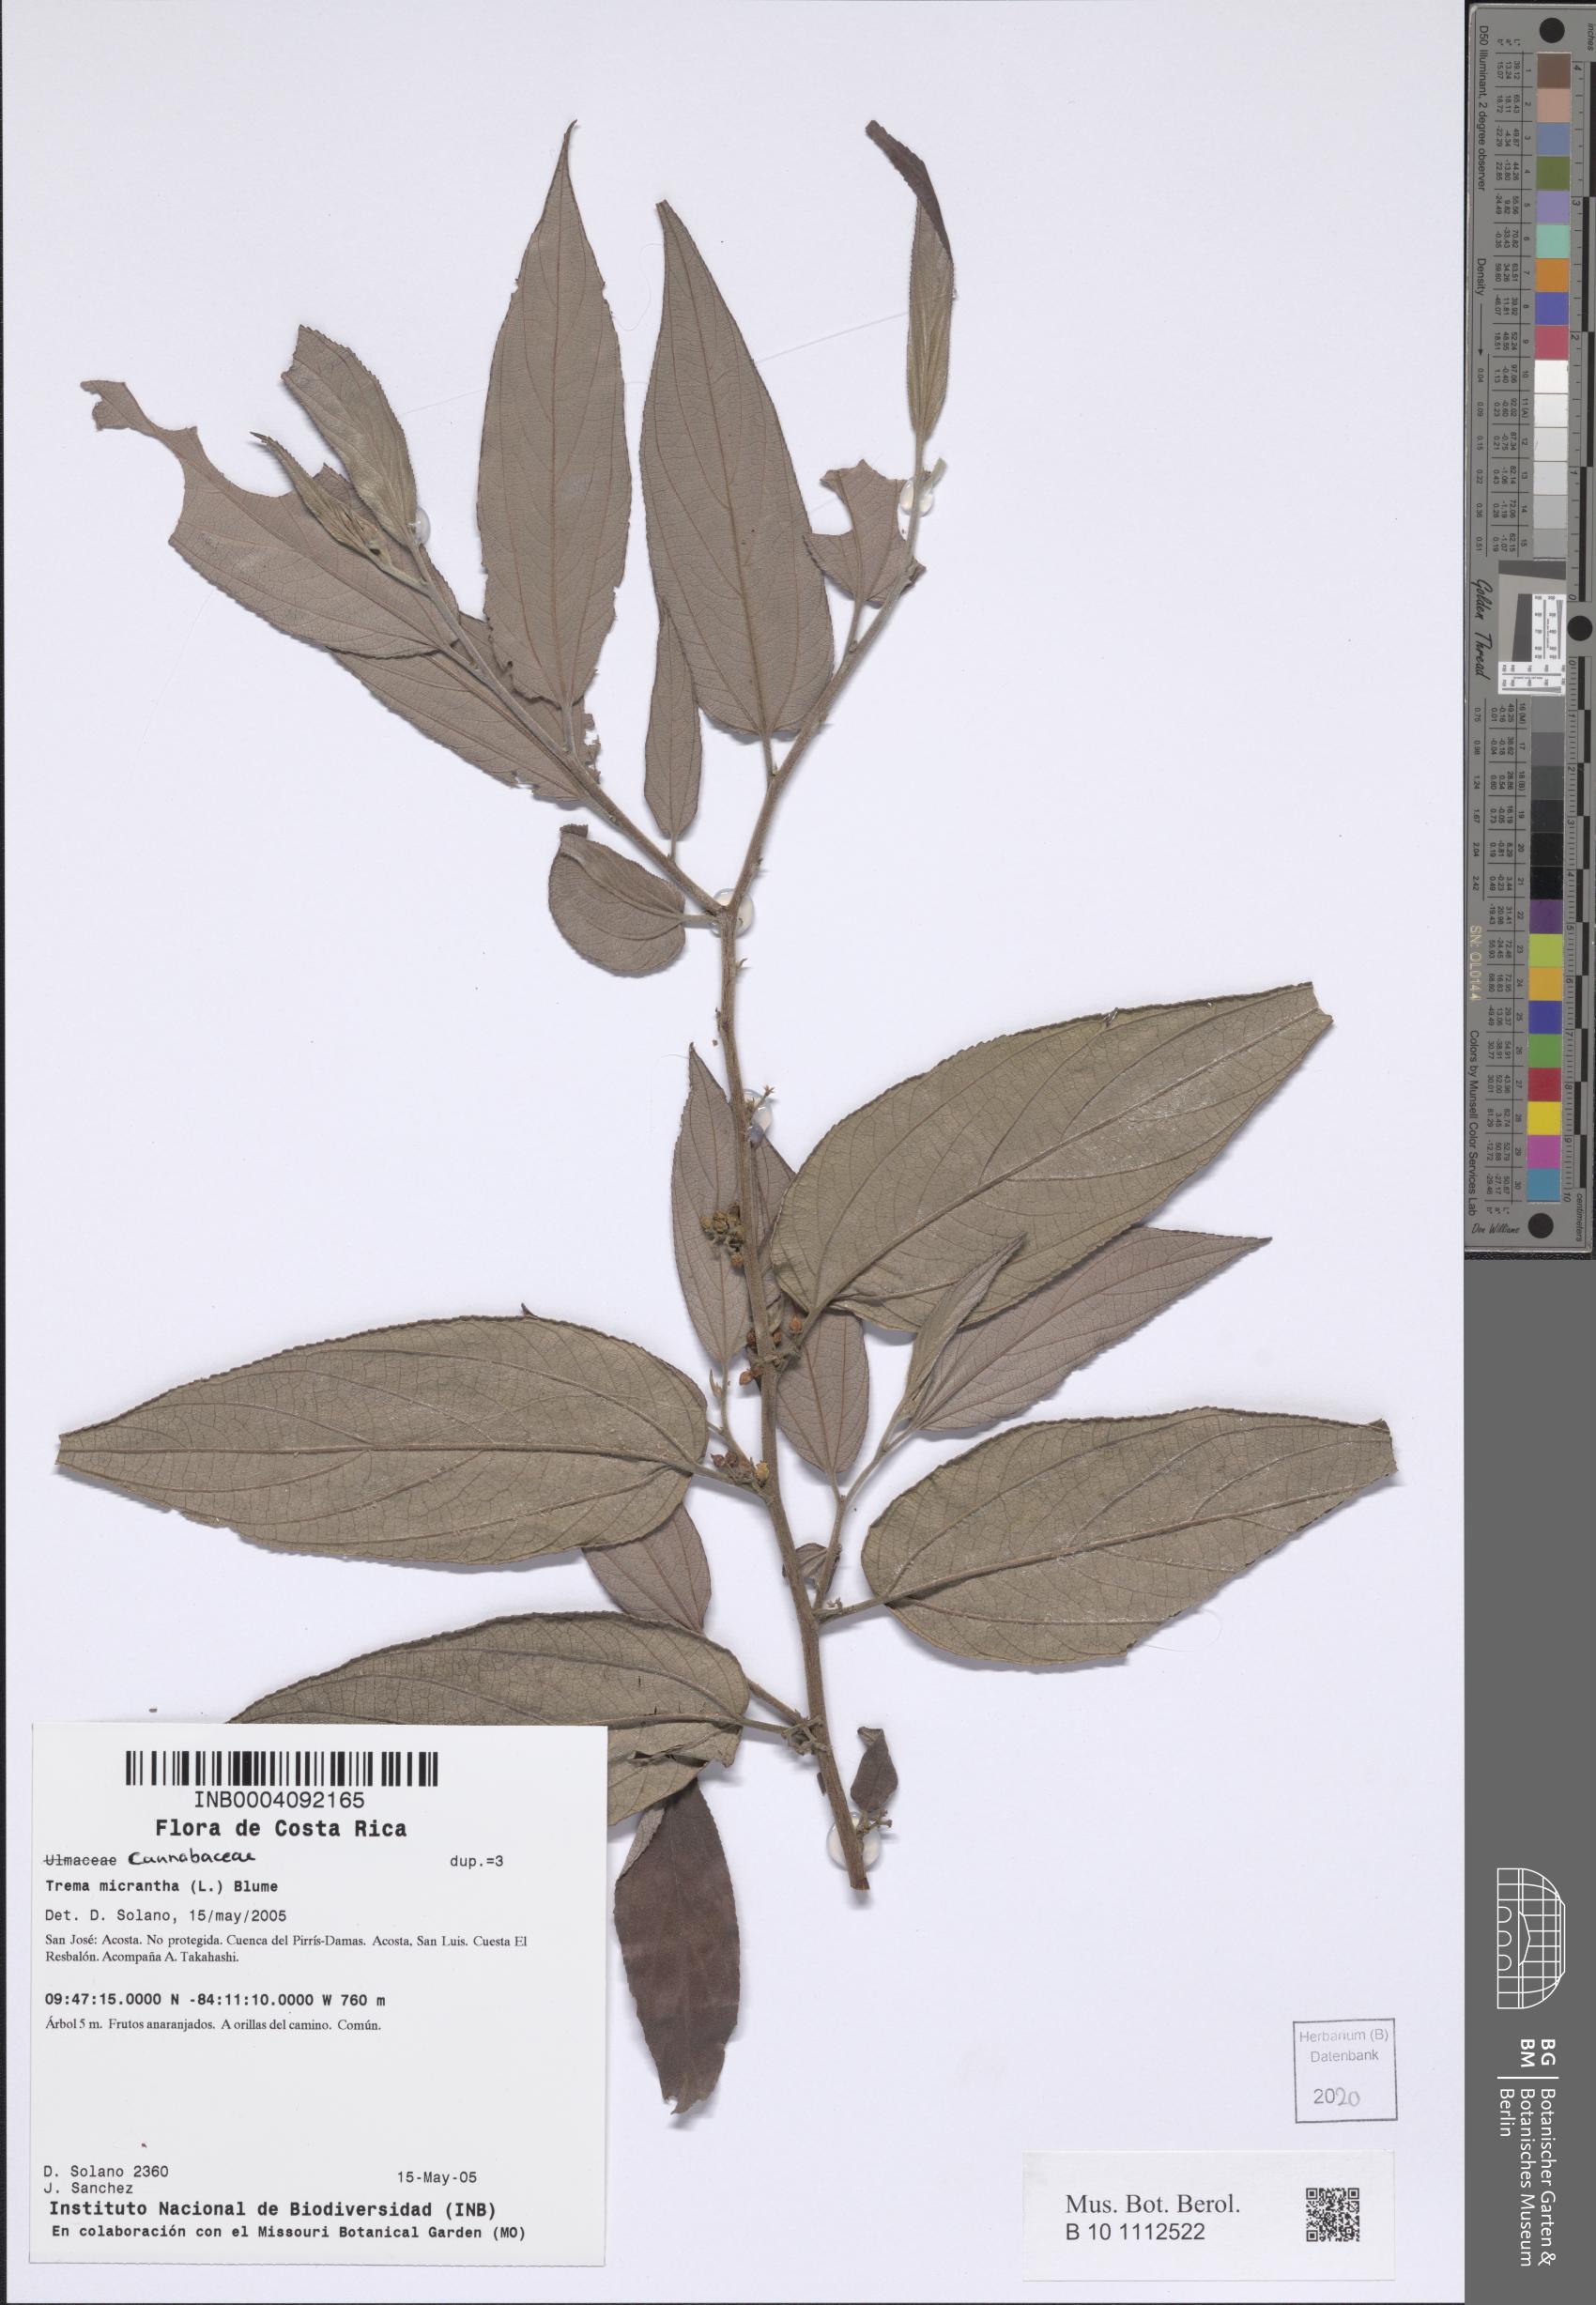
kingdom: Plantae
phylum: Tracheophyta
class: Magnoliopsida
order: Rosales
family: Cannabaceae
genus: Trema
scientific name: Trema micranthum
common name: Jamaican nettletree
